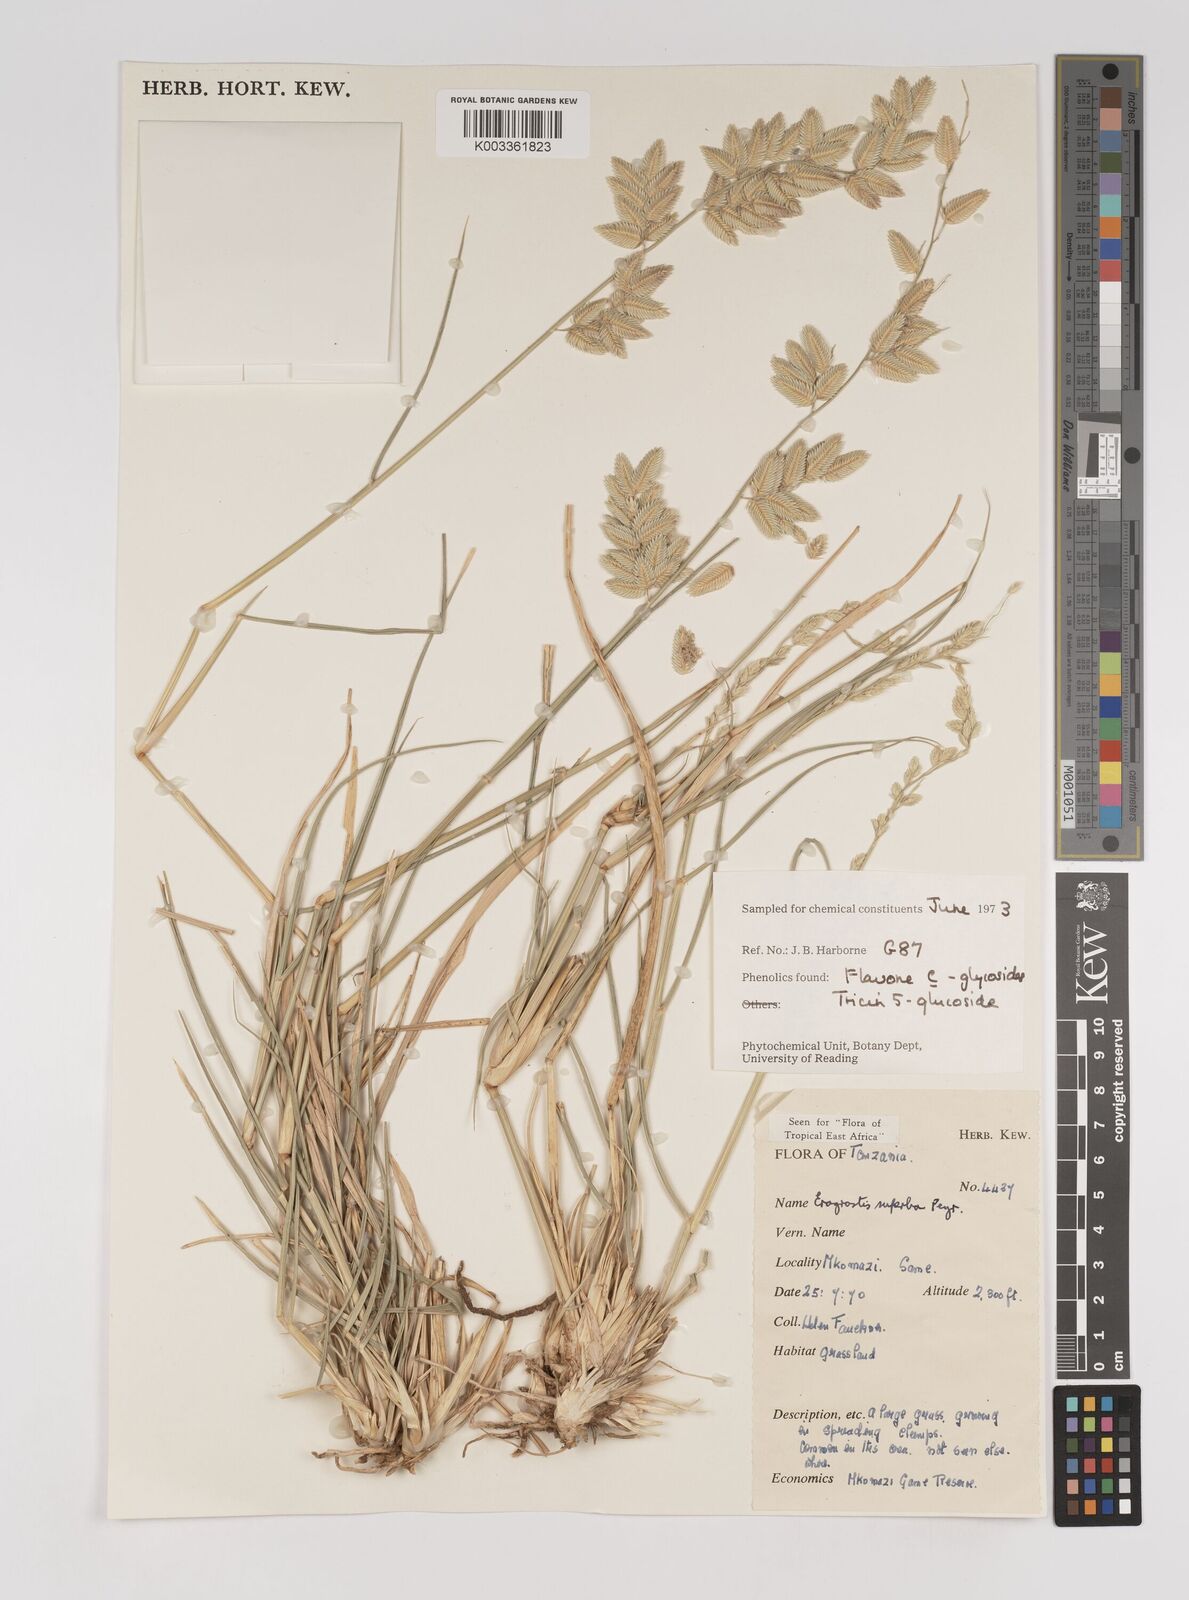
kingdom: Plantae
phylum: Tracheophyta
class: Liliopsida
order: Poales
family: Poaceae
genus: Eragrostis
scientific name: Eragrostis superba
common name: Wilman lovegrass
